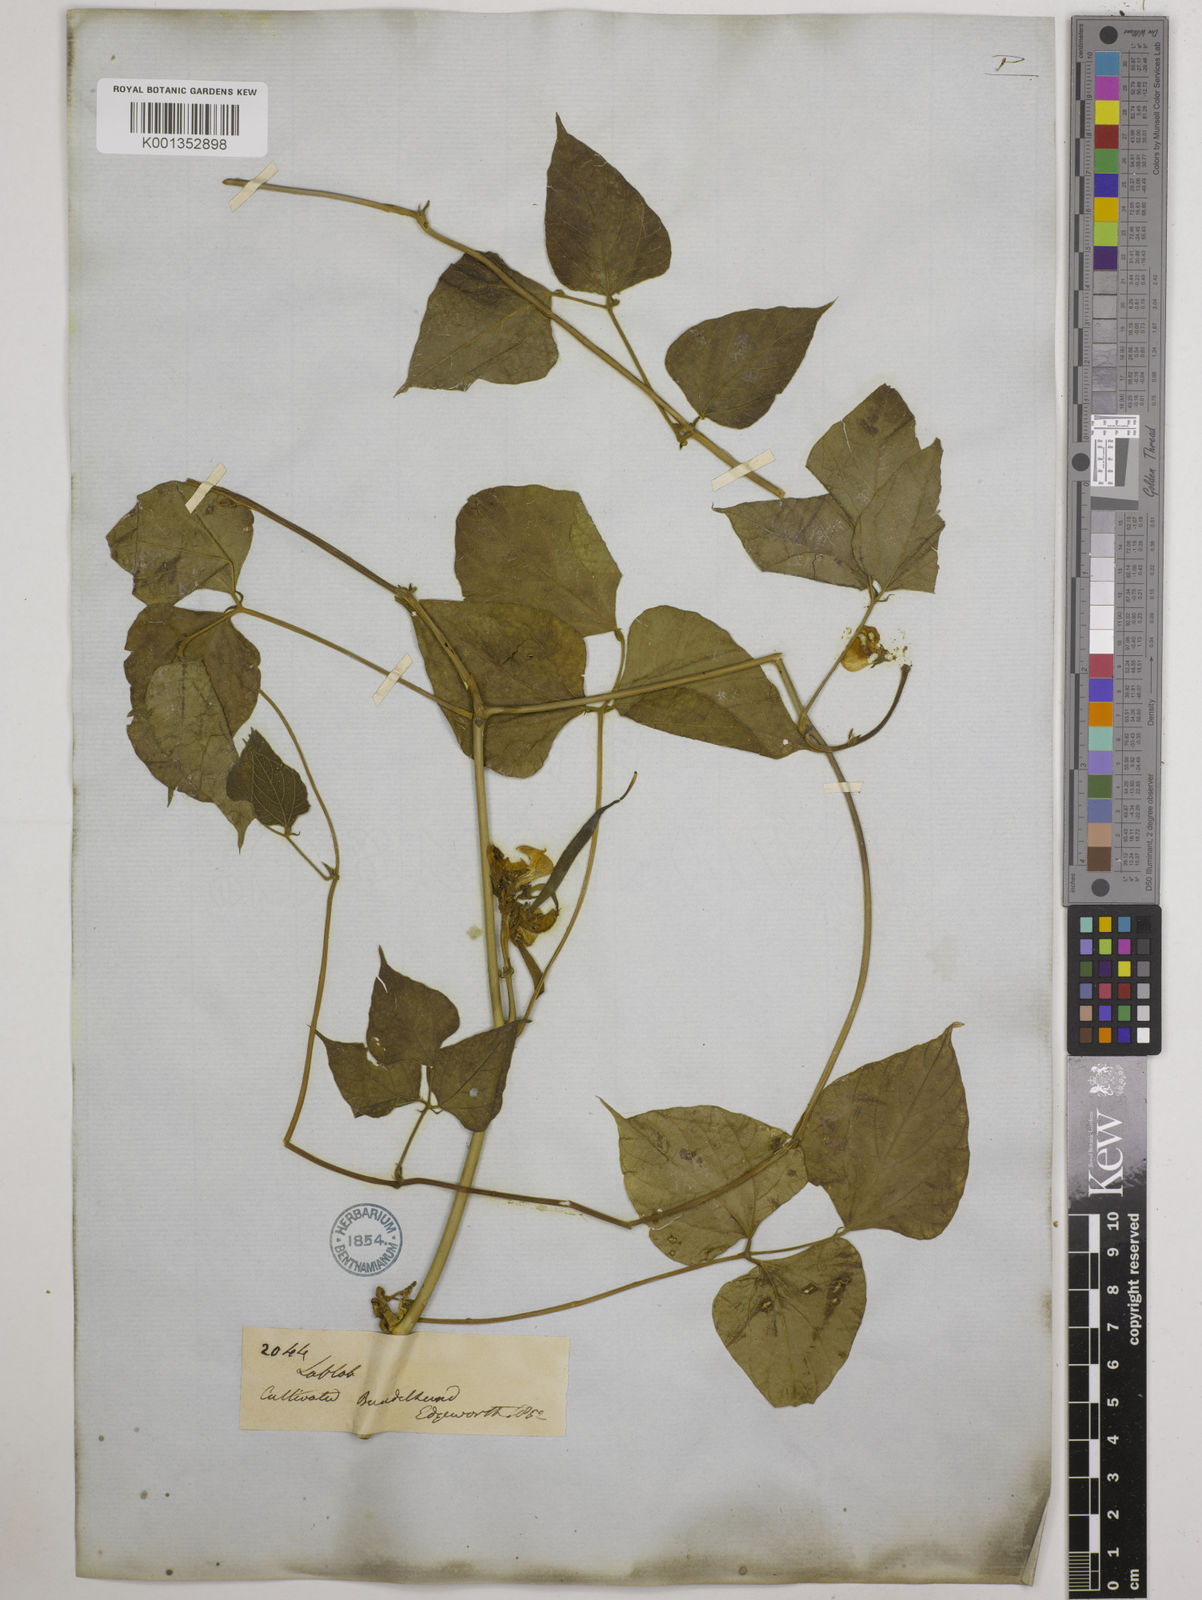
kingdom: Plantae
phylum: Tracheophyta
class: Magnoliopsida
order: Fabales
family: Fabaceae
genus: Lablab
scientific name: Lablab purpureus
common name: Lablab-bean
